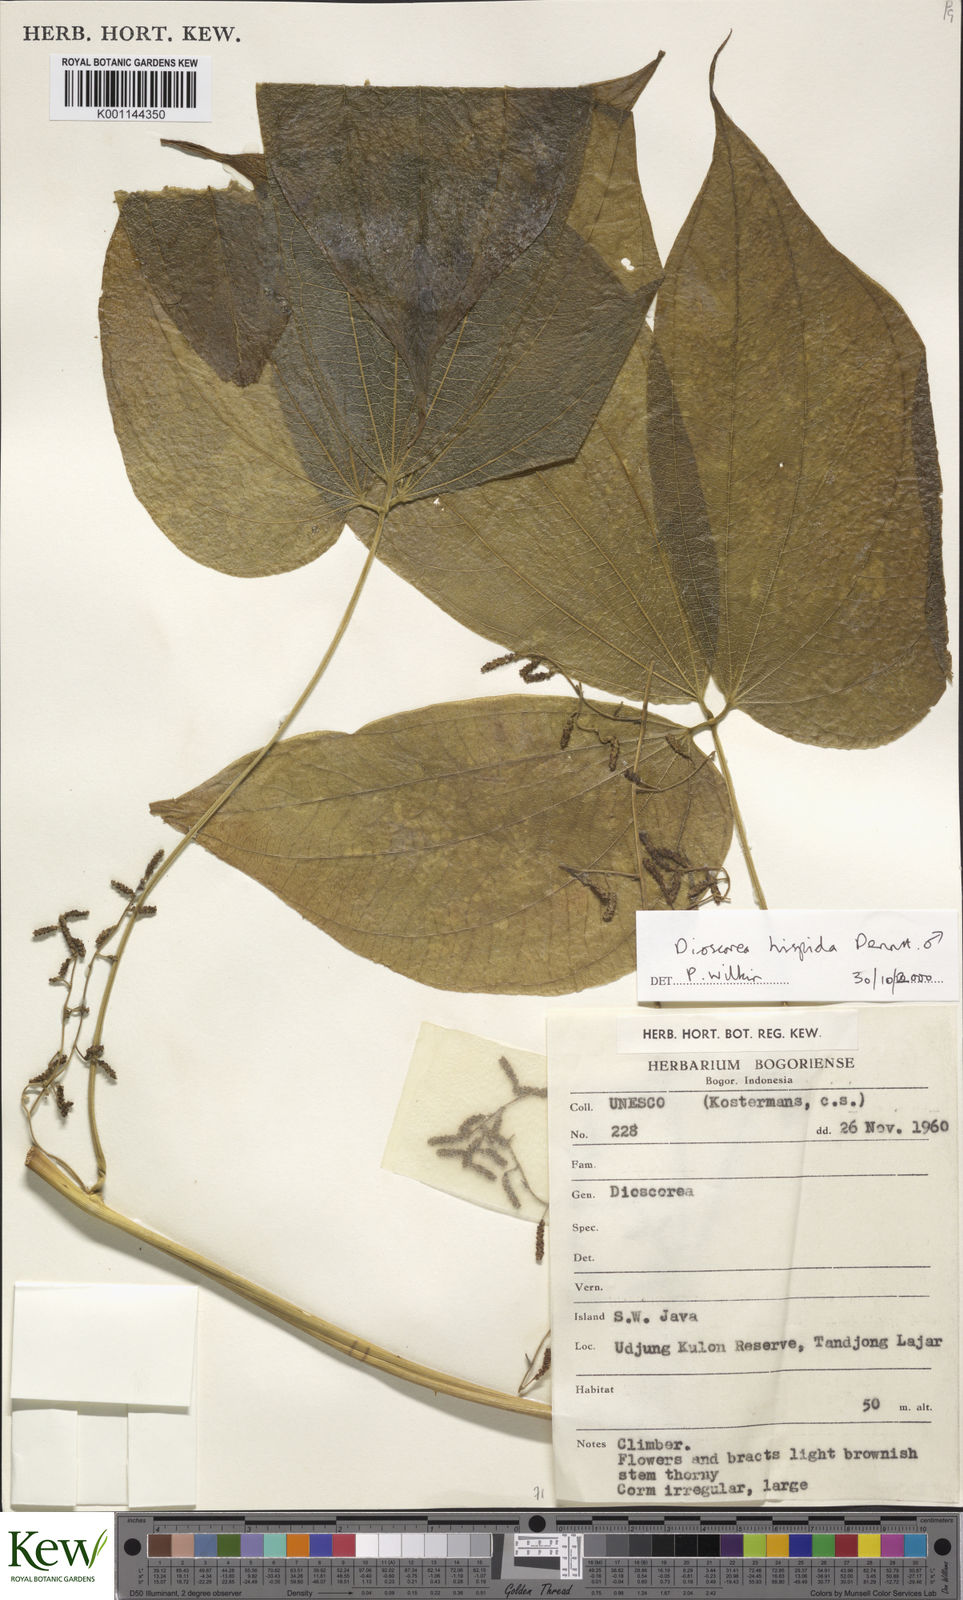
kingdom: Plantae
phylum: Tracheophyta
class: Liliopsida
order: Dioscoreales
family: Dioscoreaceae
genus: Dioscorea
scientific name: Dioscorea hispida
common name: Asiatic bitter yam
